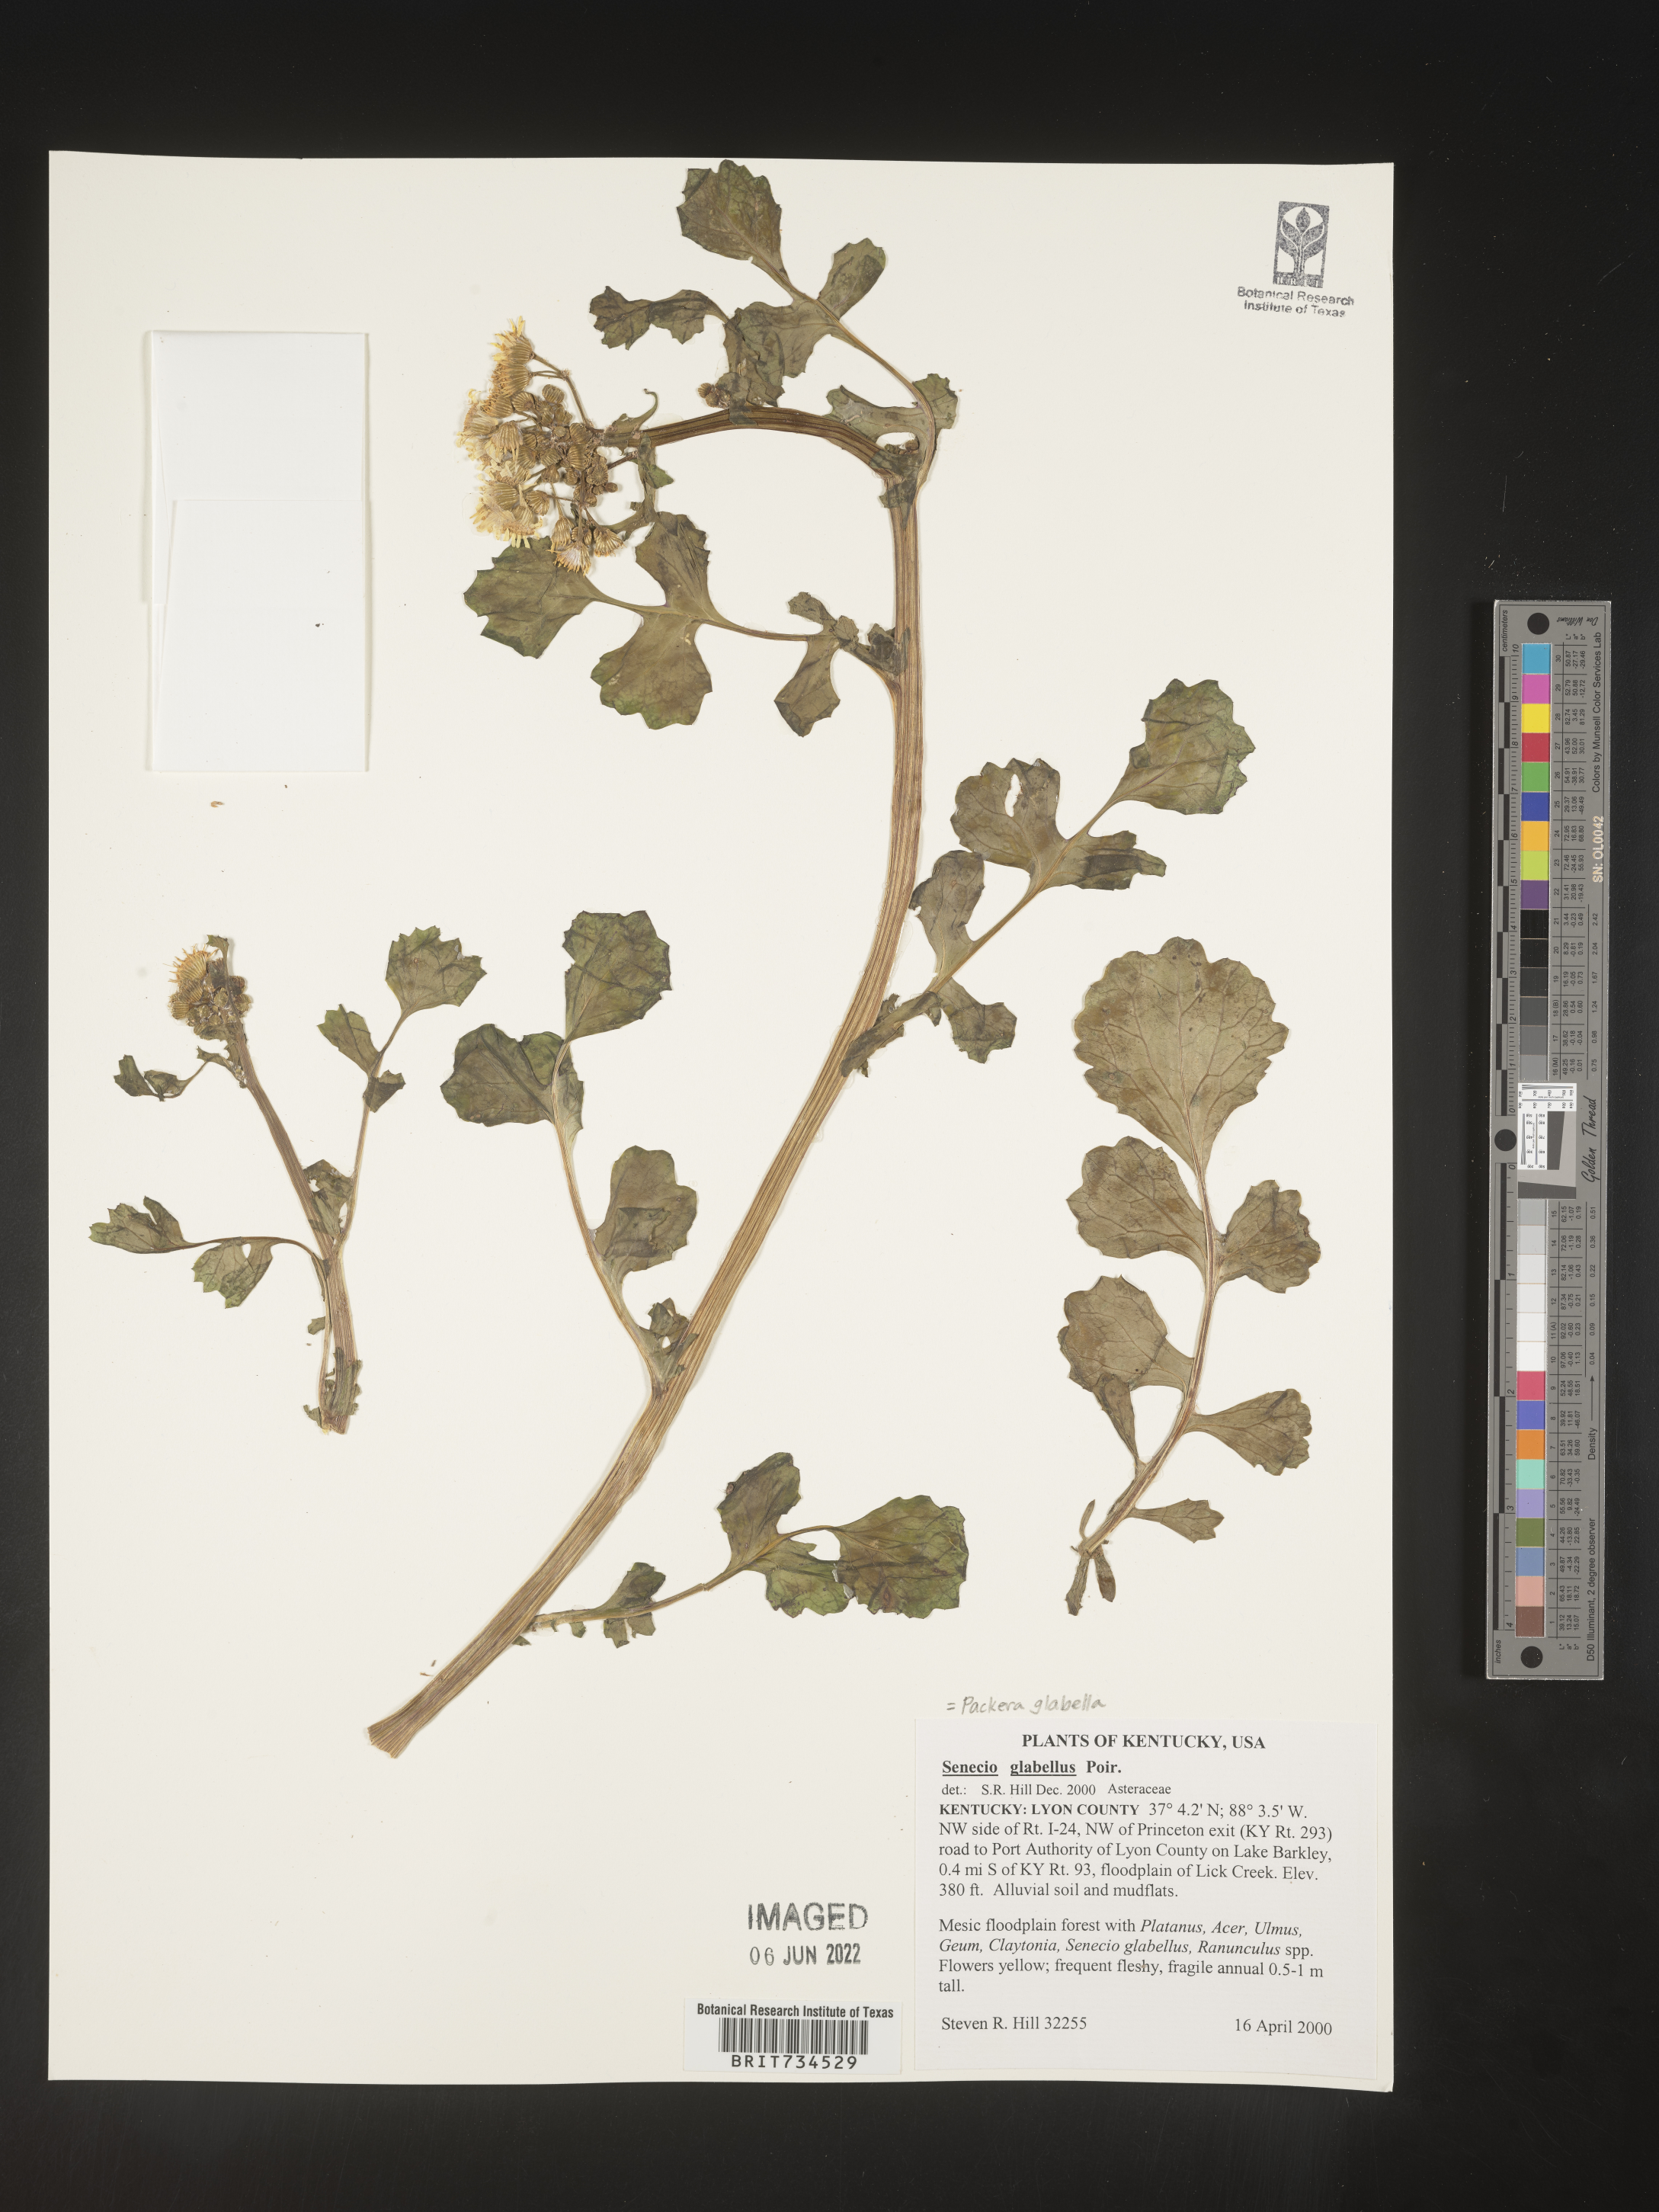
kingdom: Plantae
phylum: Tracheophyta
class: Magnoliopsida
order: Asterales
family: Asteraceae
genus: Packera
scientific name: Packera glabella
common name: Butterweed
